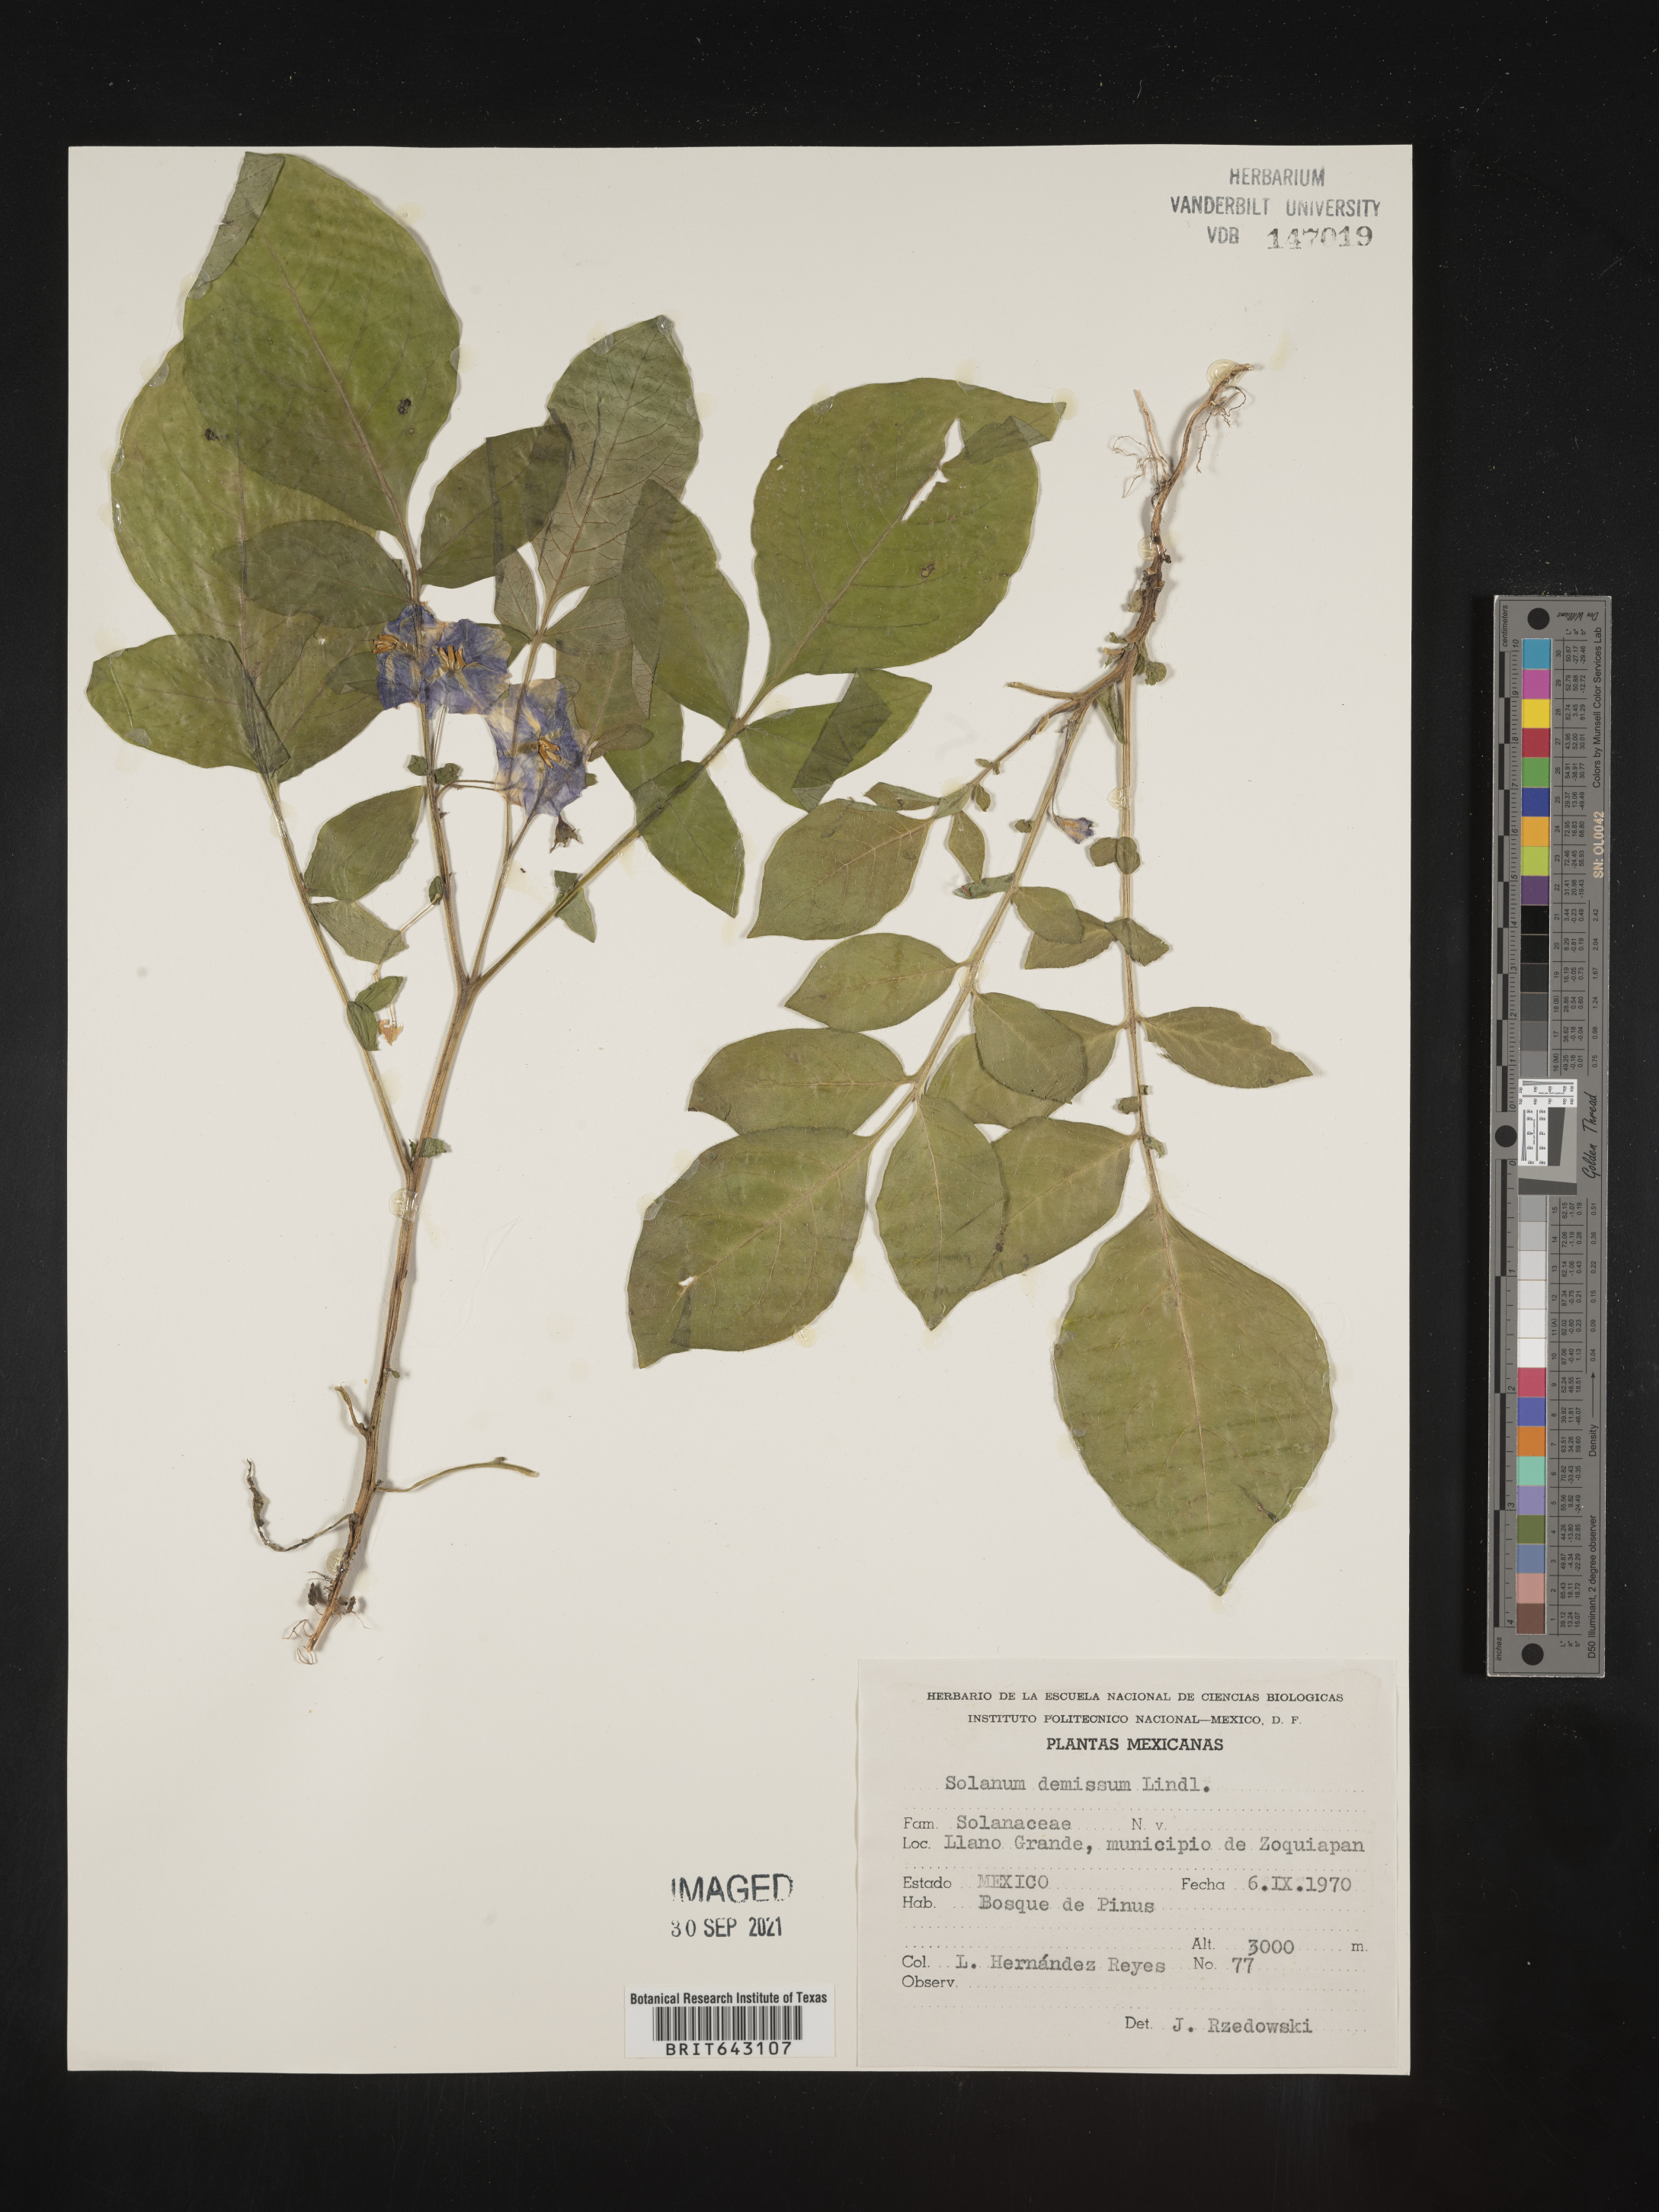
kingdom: Plantae
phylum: Tracheophyta
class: Magnoliopsida
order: Solanales
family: Solanaceae
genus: Solanum
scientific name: Solanum
